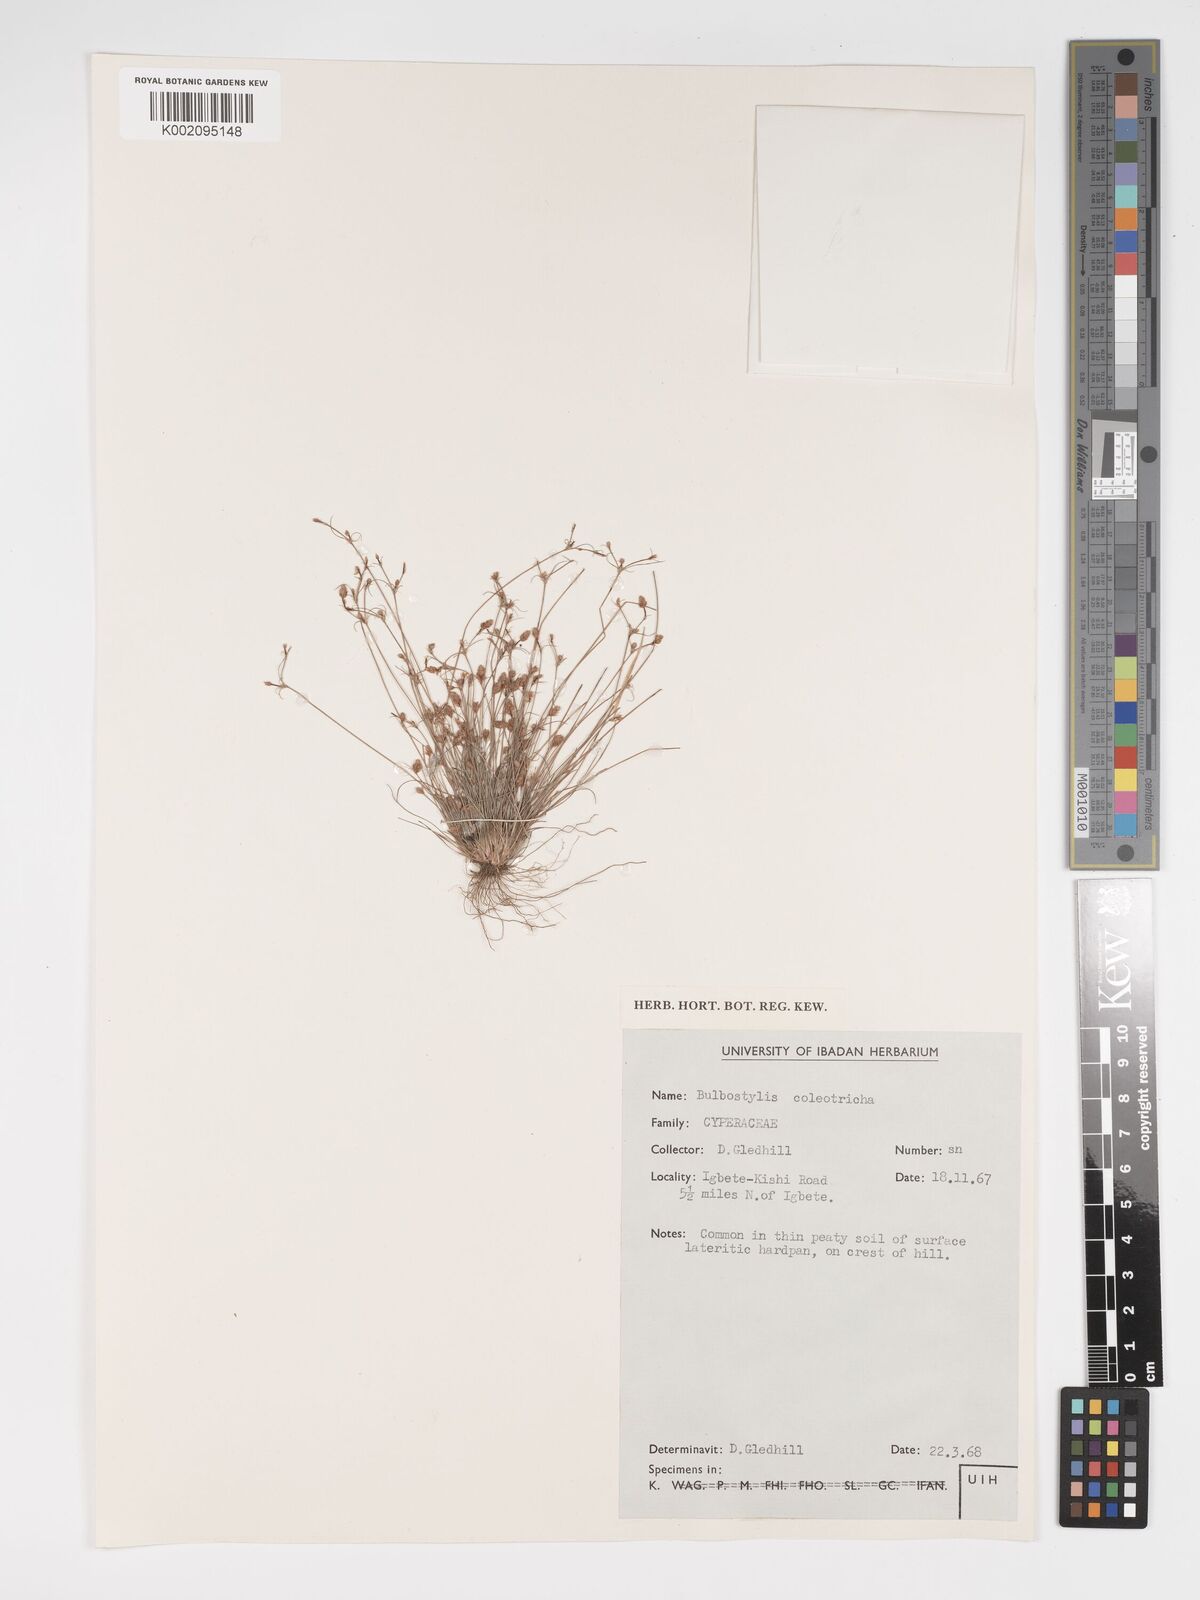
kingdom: Plantae
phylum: Tracheophyta
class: Liliopsida
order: Poales
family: Cyperaceae
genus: Bulbostylis
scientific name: Bulbostylis coleotricha
